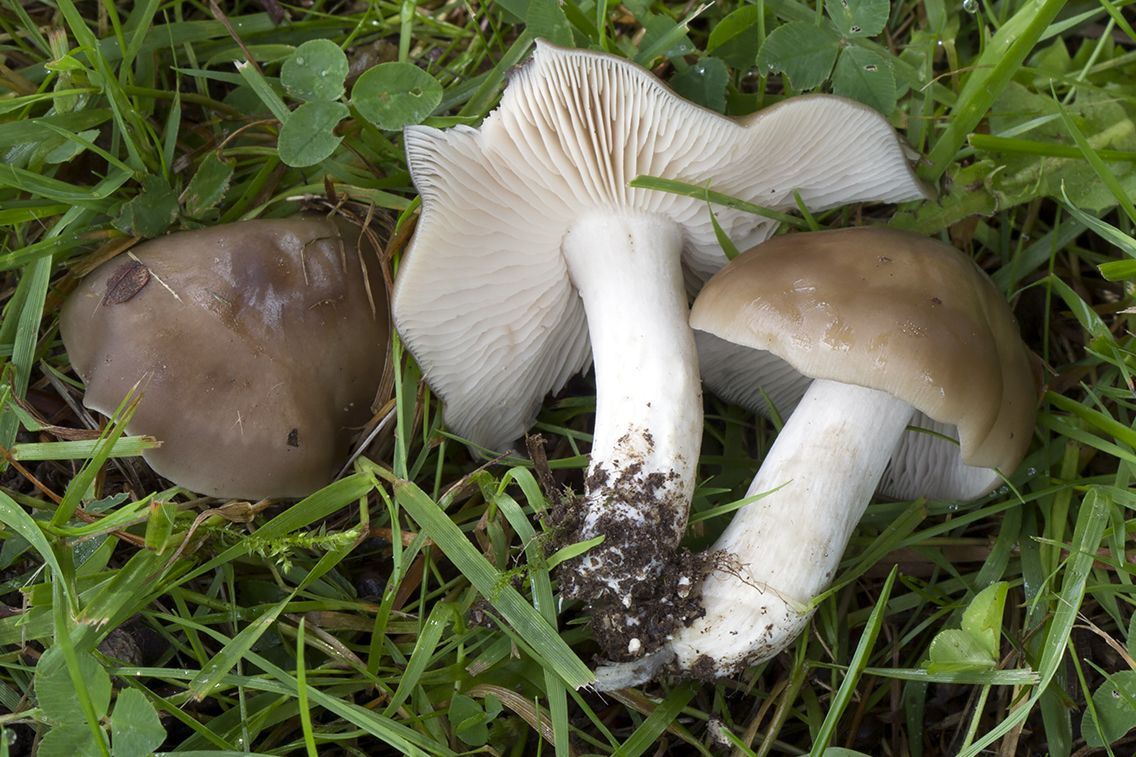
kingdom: Fungi
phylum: Basidiomycota
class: Agaricomycetes
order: Agaricales
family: Entolomataceae
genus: Entoloma
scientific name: Entoloma lividoalbum
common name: lysstokket rødblad
